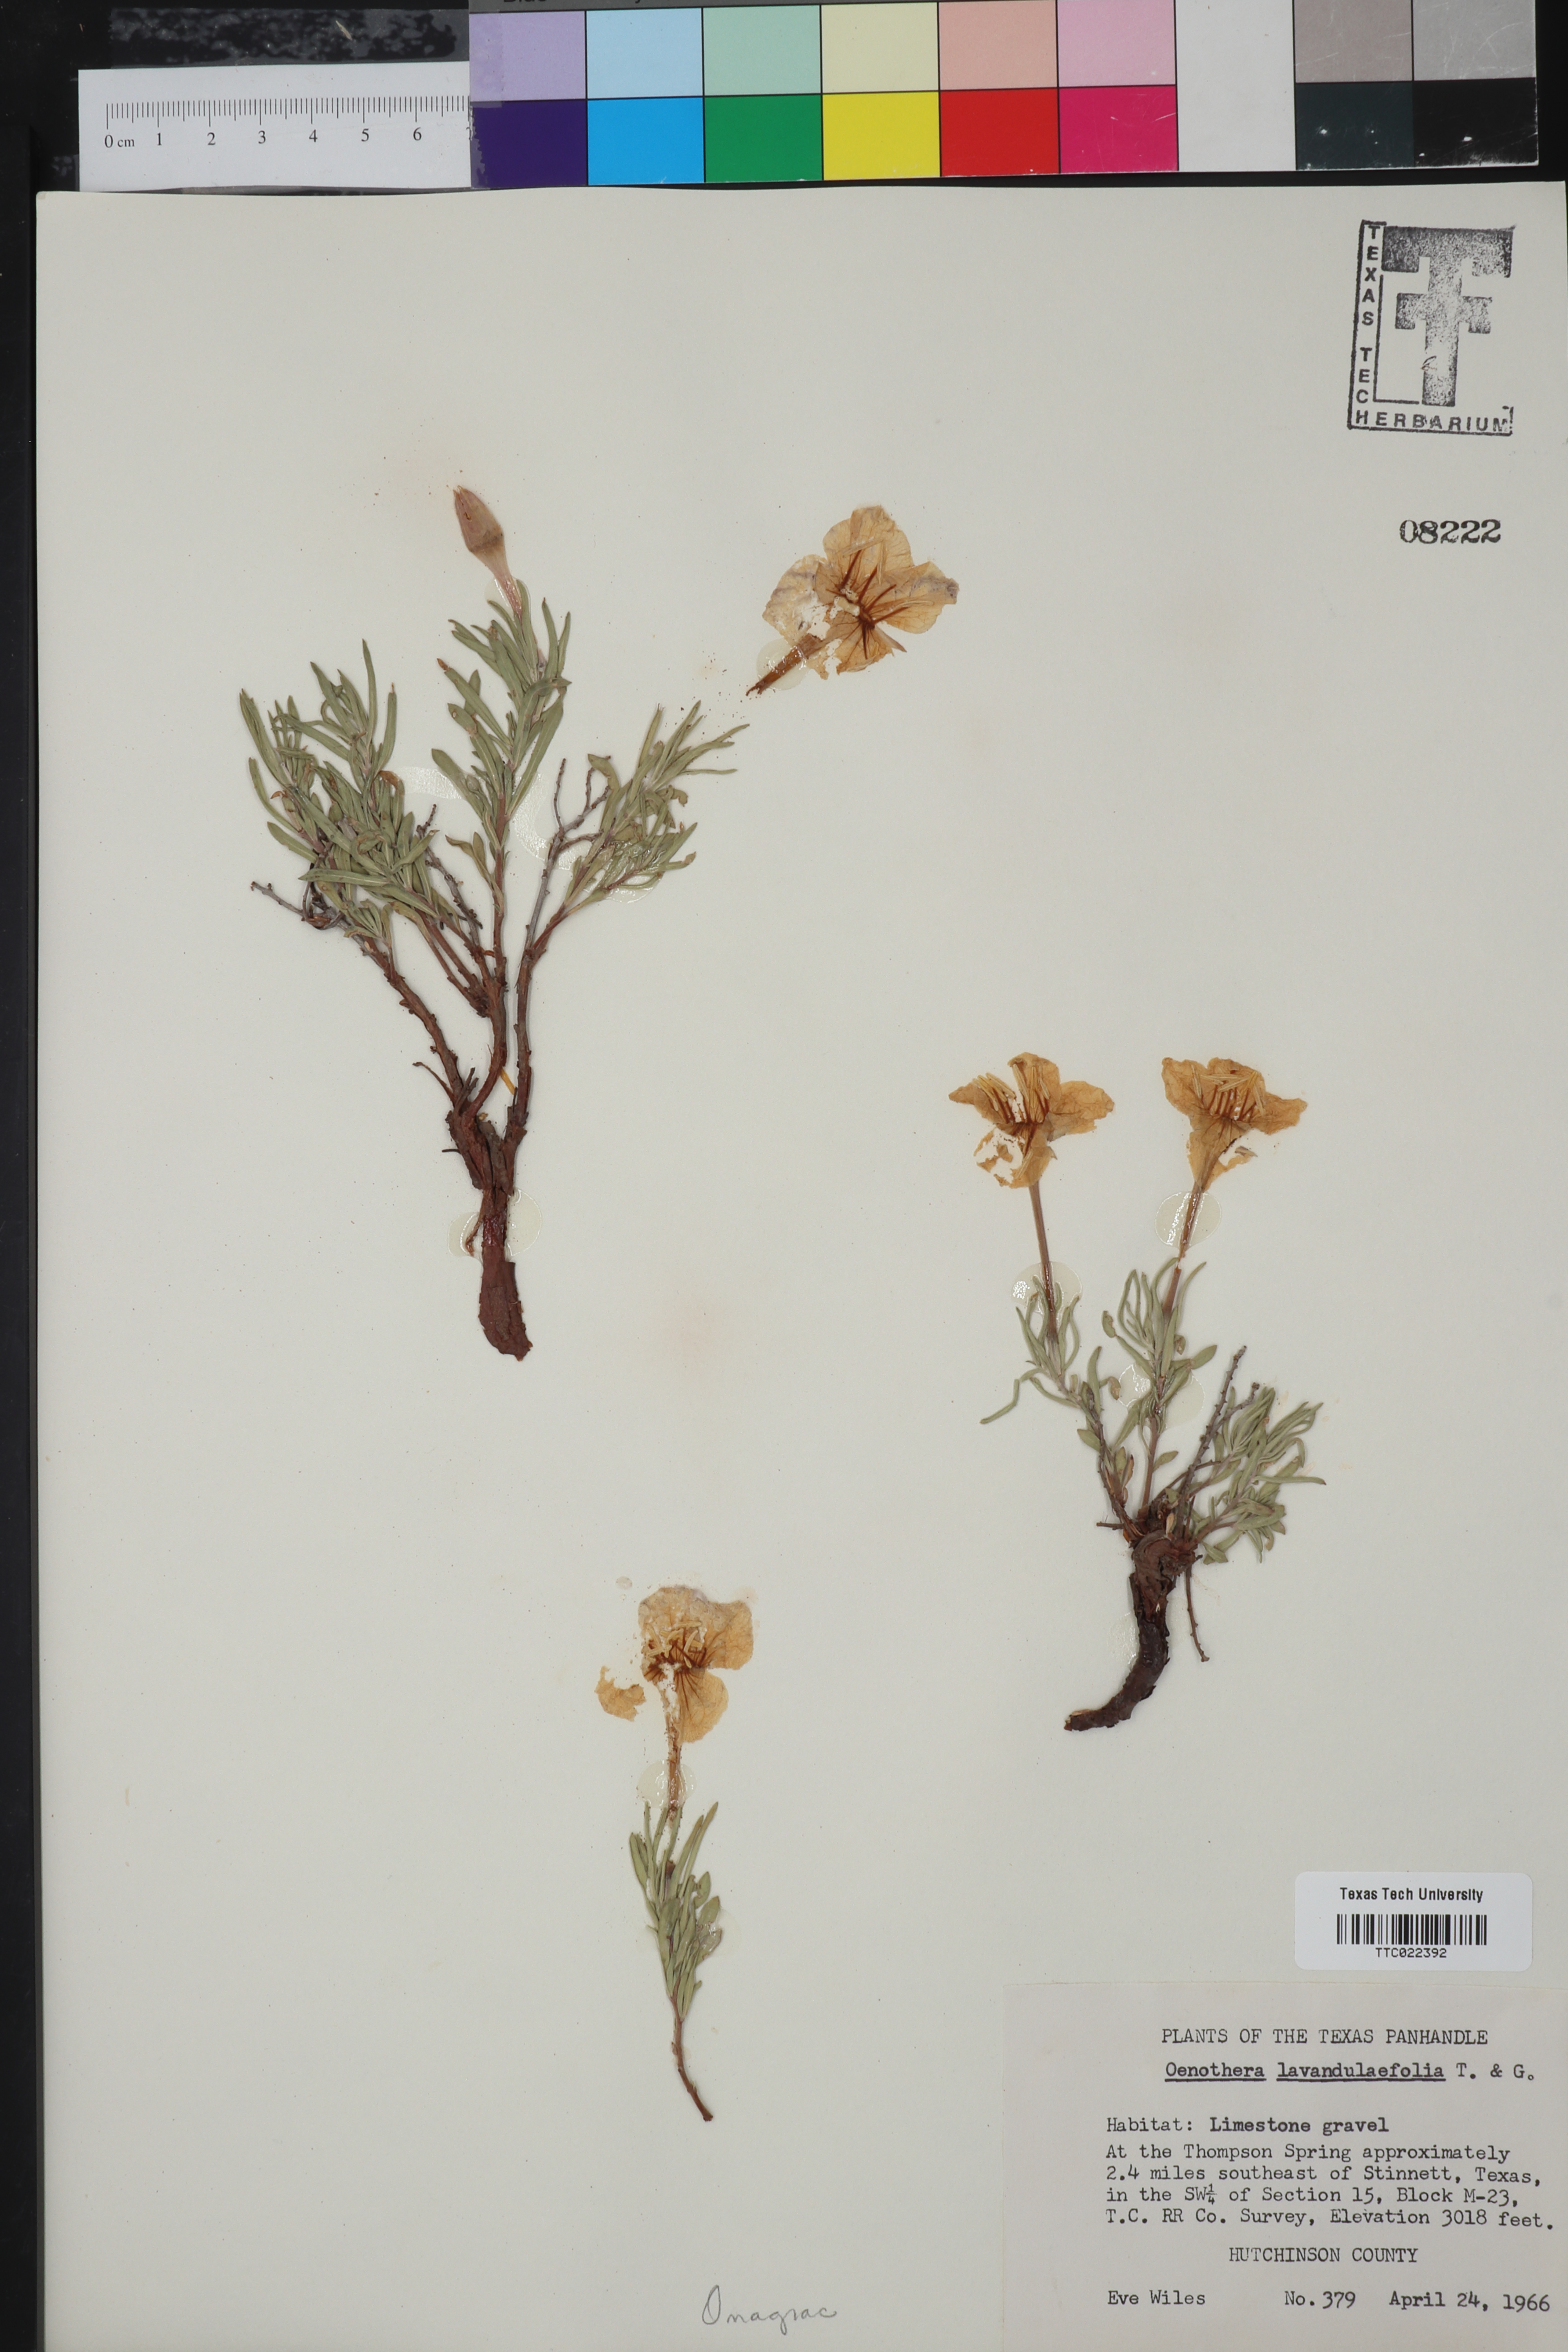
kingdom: Plantae
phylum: Tracheophyta
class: Magnoliopsida
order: Myrtales
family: Onagraceae
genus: Oenothera
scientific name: Oenothera lavandulifolia
